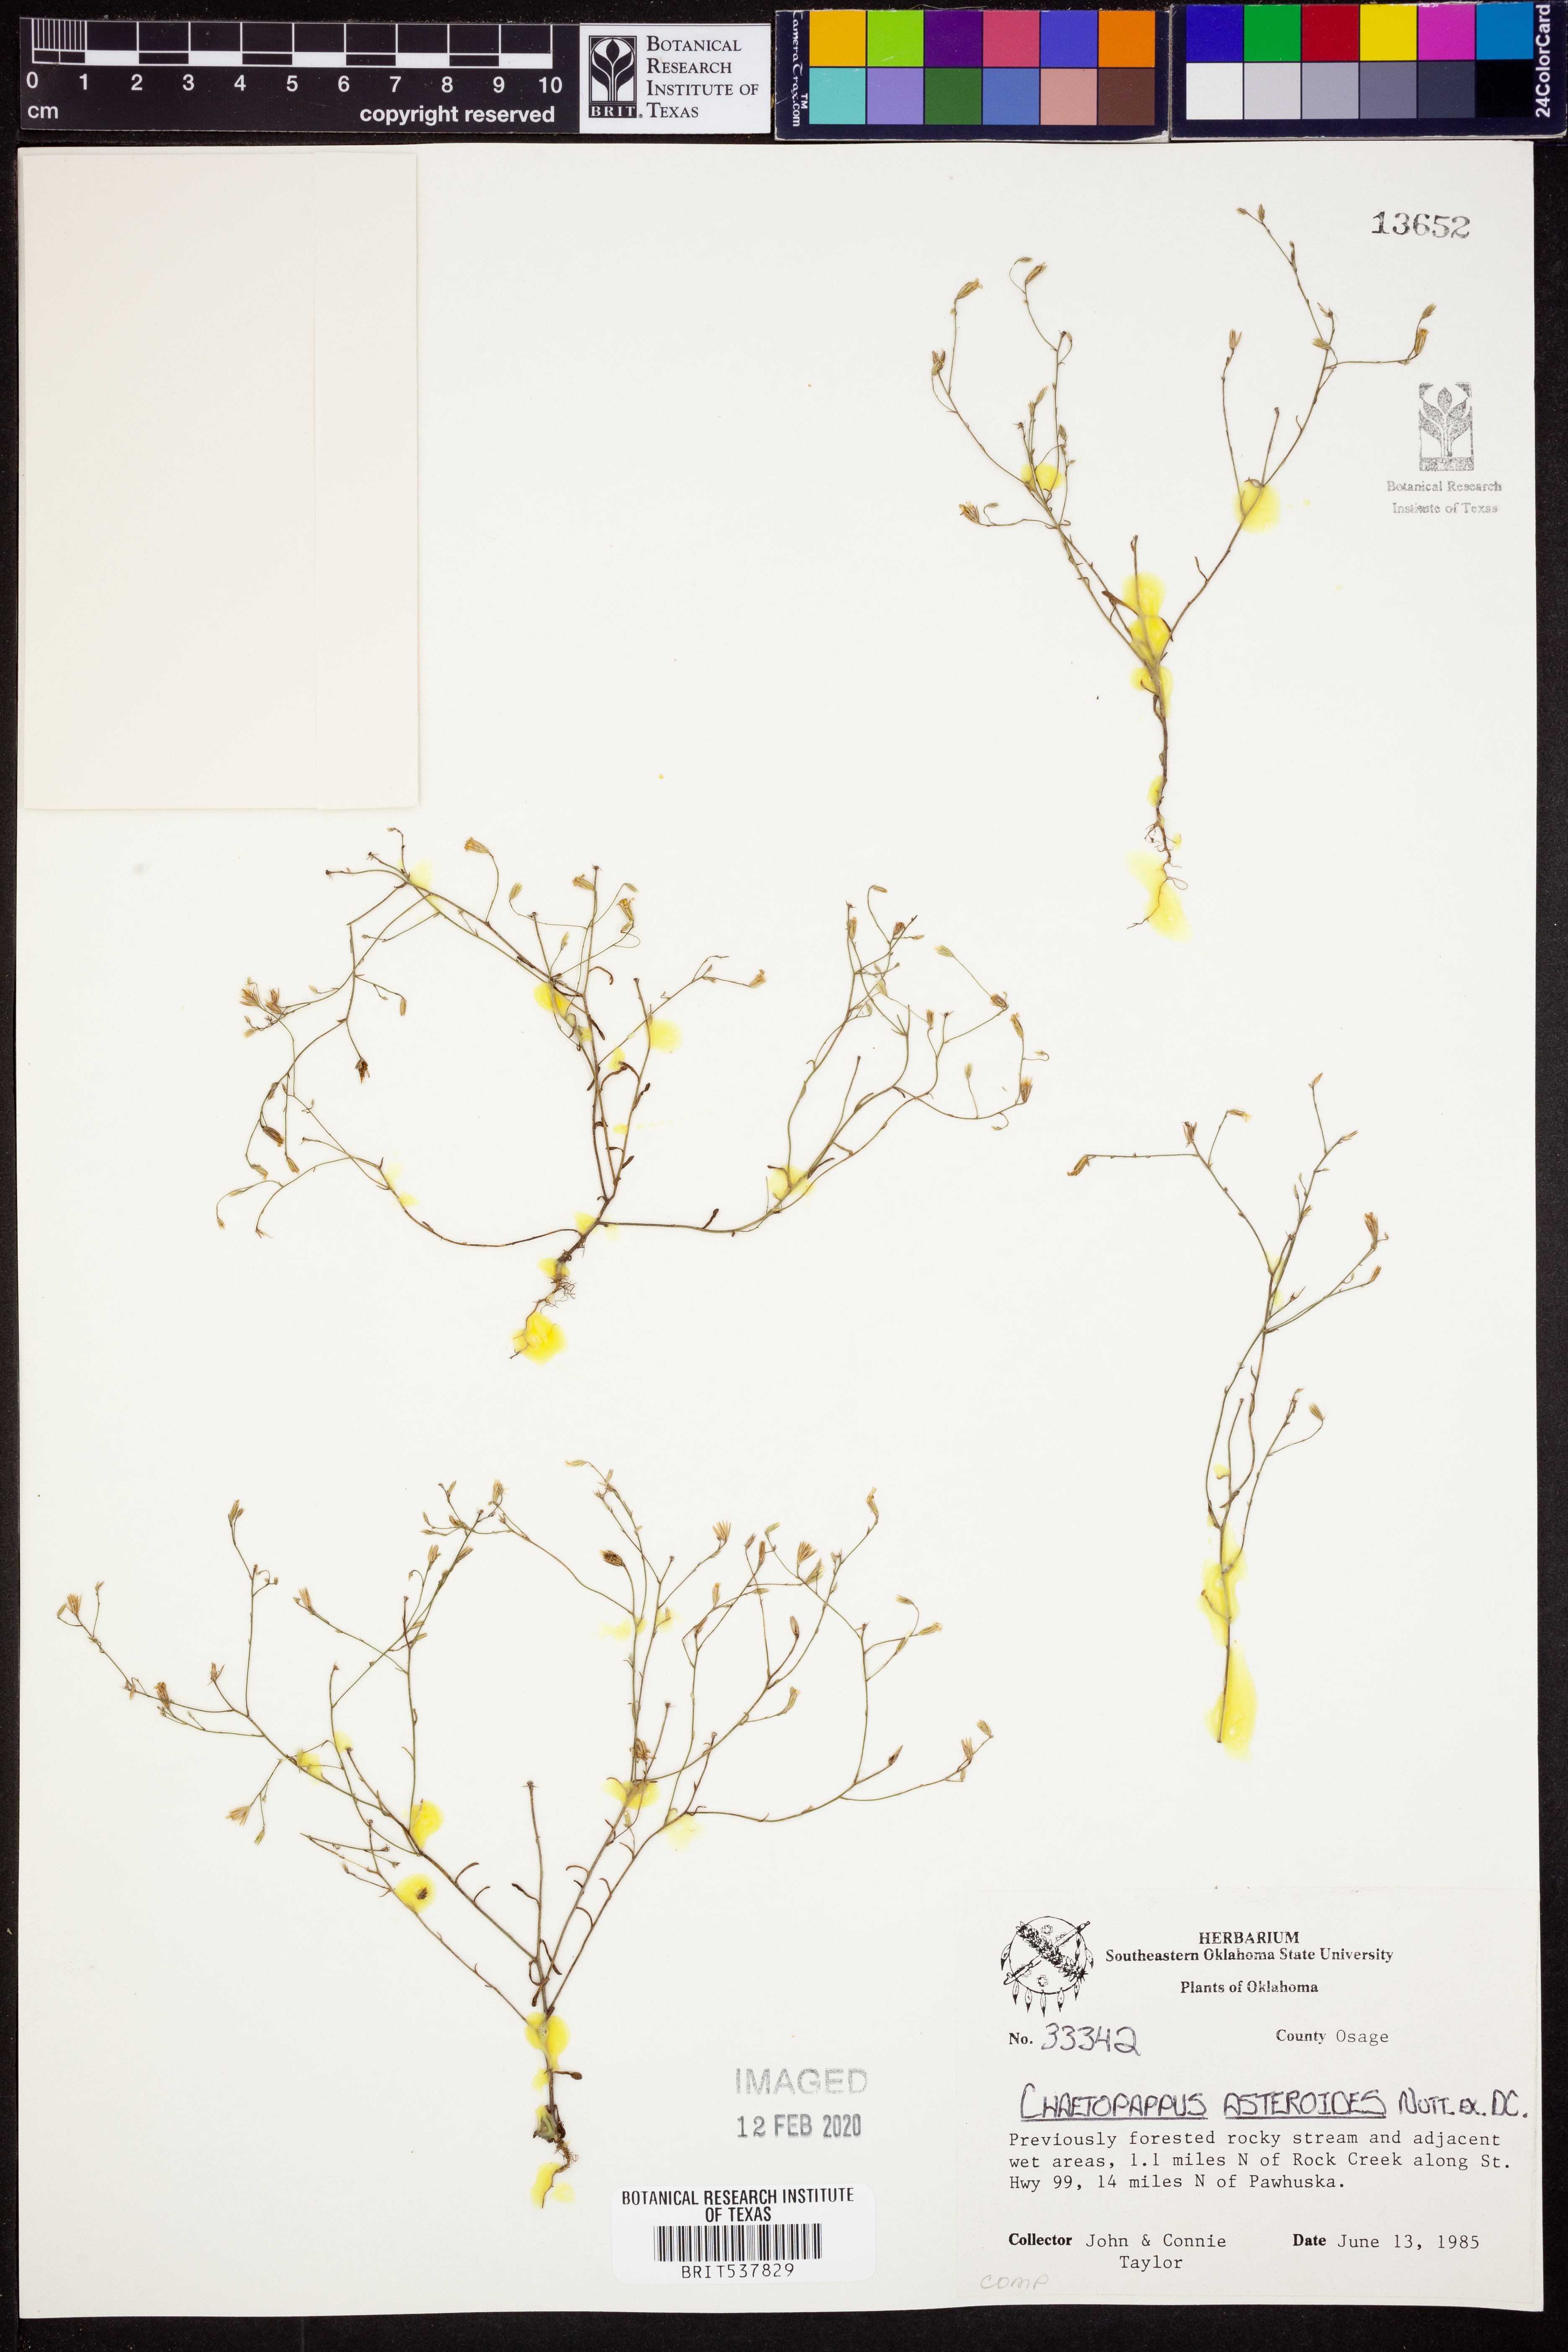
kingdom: Plantae
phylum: Tracheophyta
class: Magnoliopsida
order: Asterales
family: Asteraceae
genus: Chaetopappa
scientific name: Chaetopappa asteroides
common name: Tiny lazy daisy
